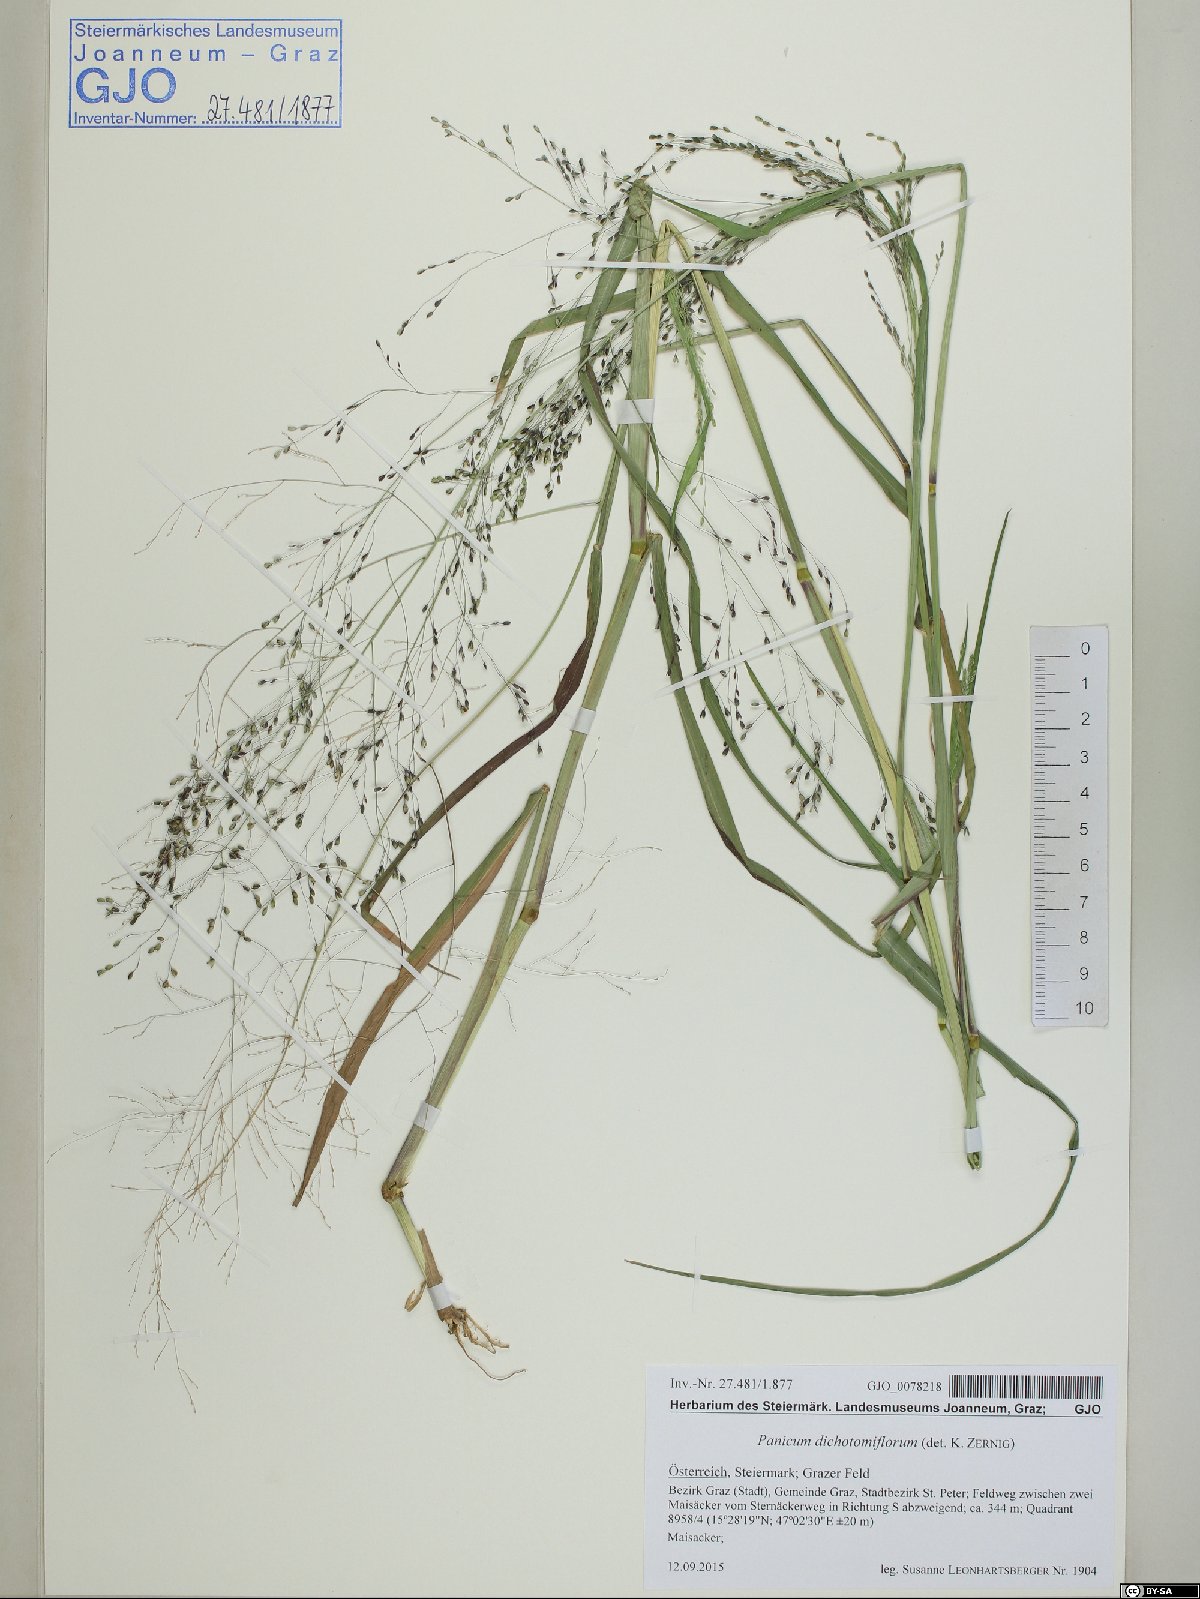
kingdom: Plantae
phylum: Tracheophyta
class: Liliopsida
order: Poales
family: Poaceae
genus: Panicum
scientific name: Panicum dichotomiflorum
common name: Autumn millet
